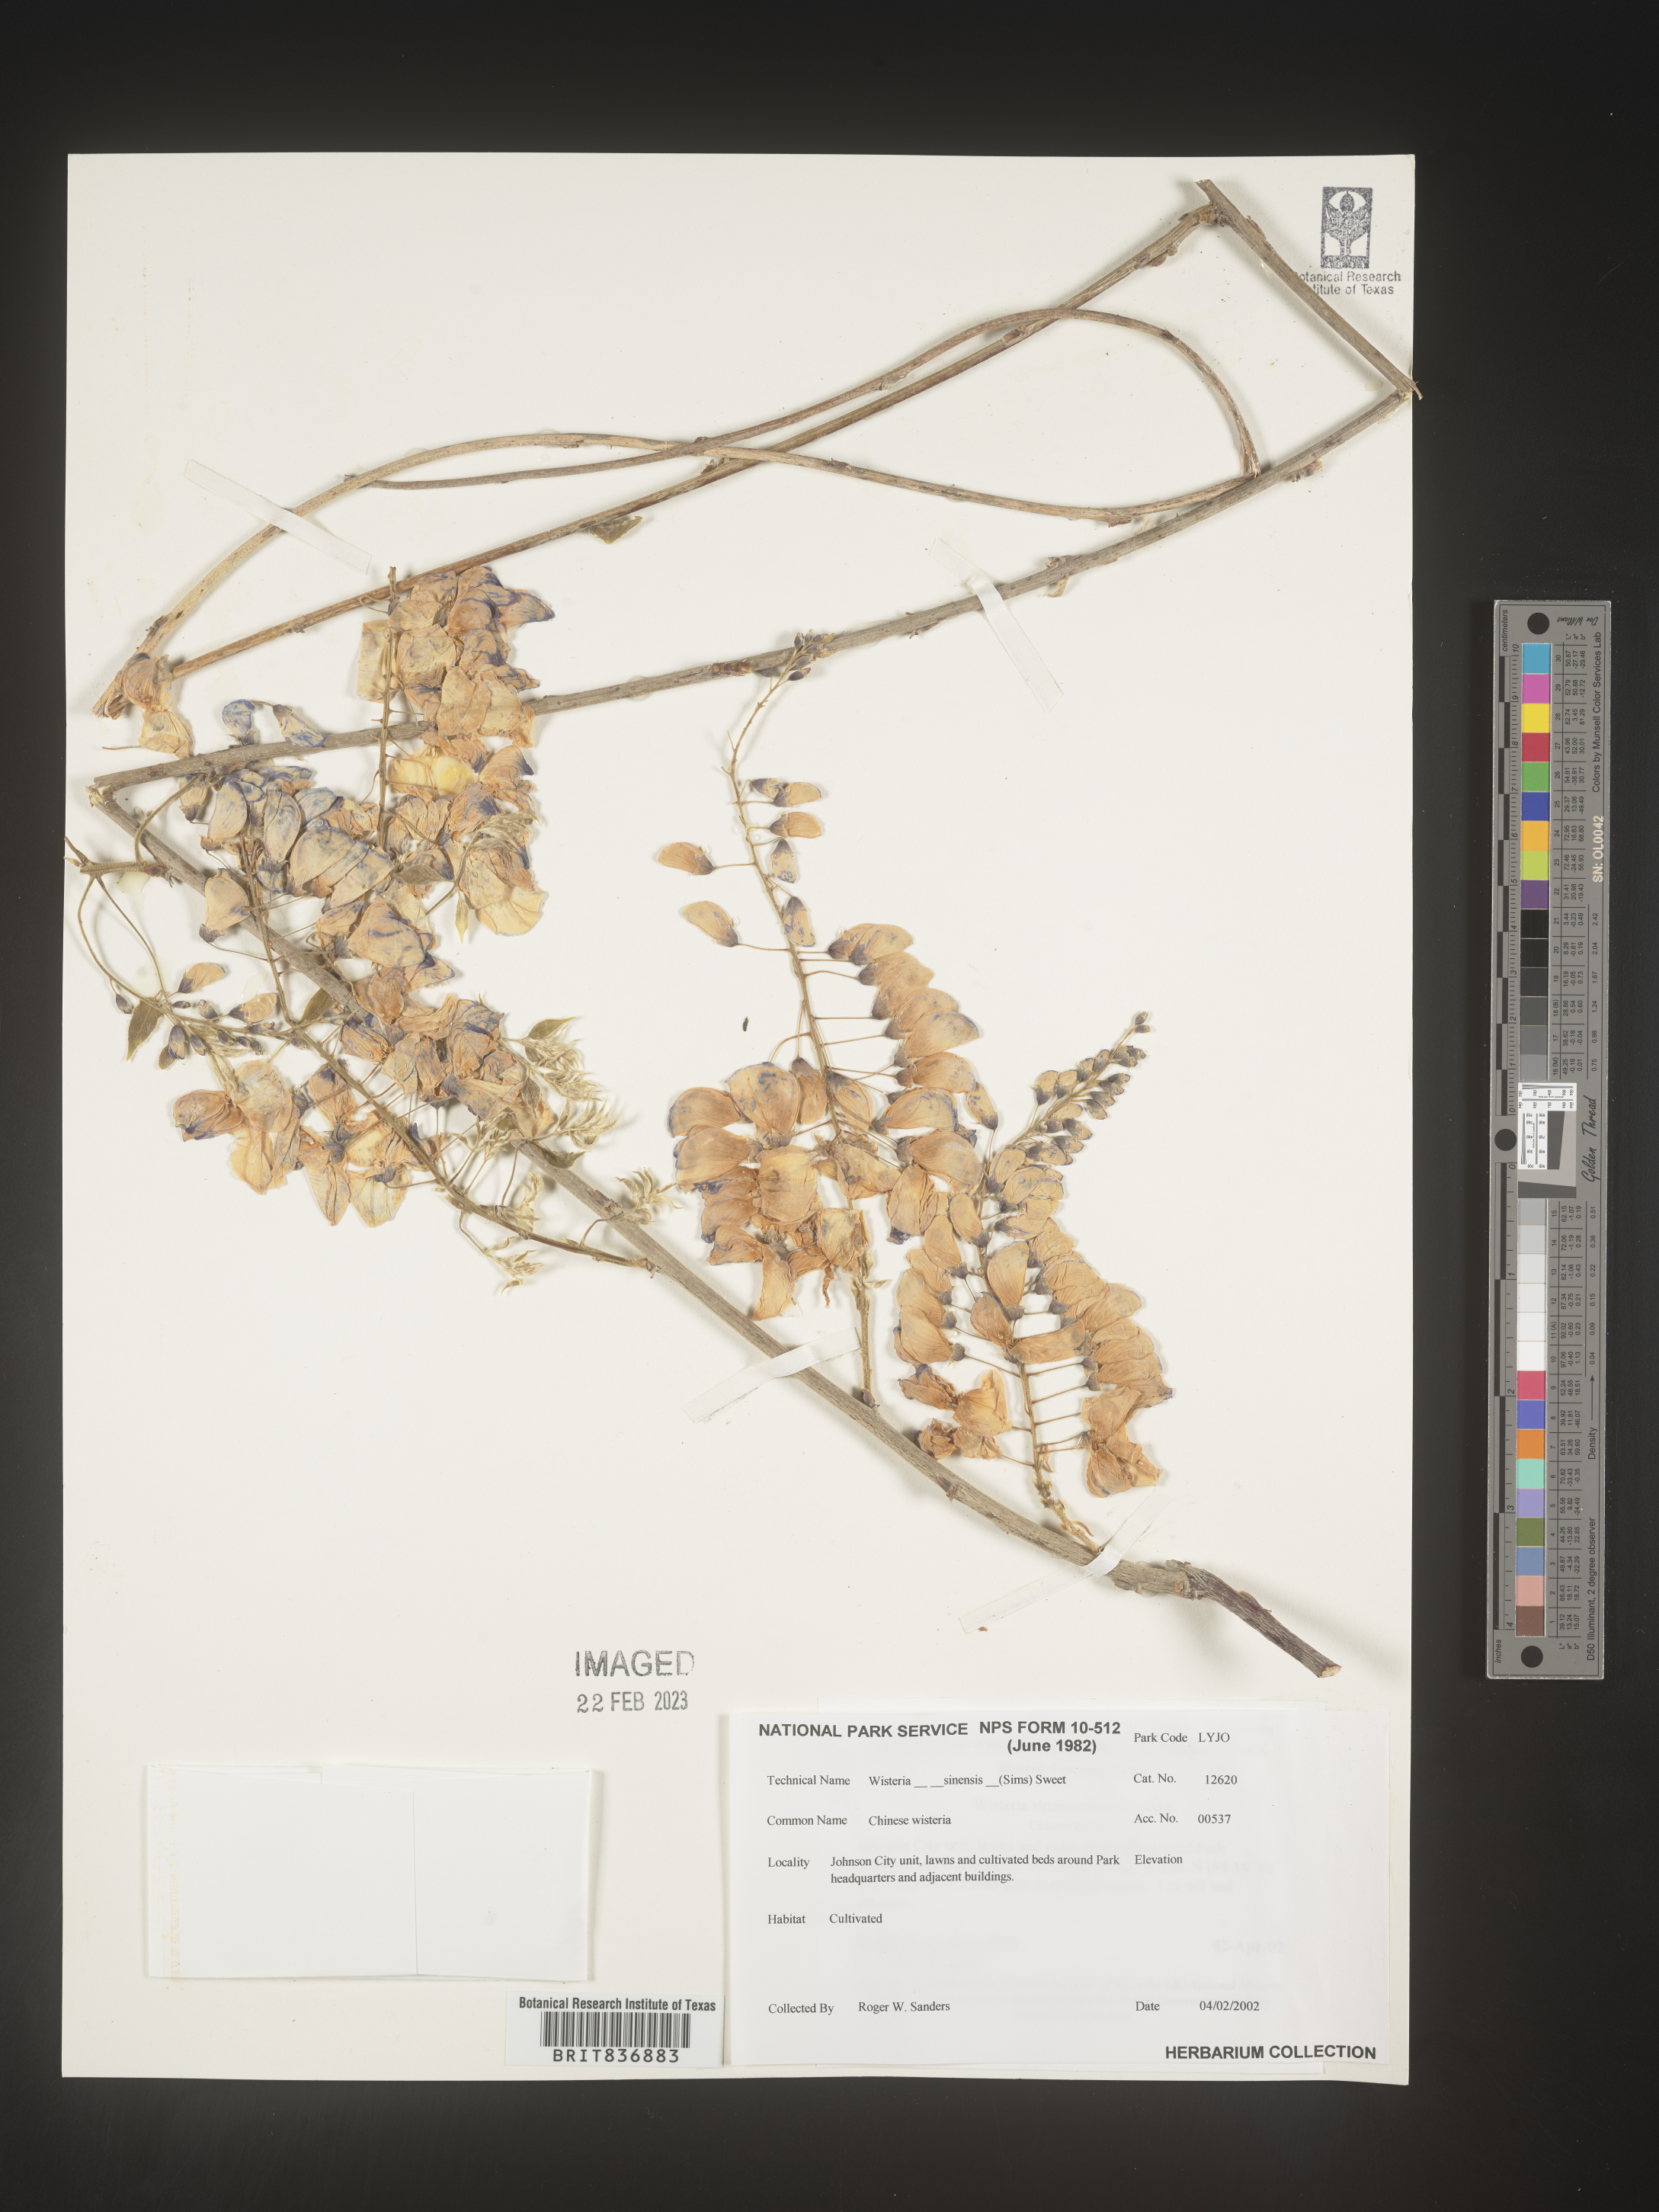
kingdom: Plantae
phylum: Tracheophyta
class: Magnoliopsida
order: Fabales
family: Fabaceae
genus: Wisteria
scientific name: Wisteria
